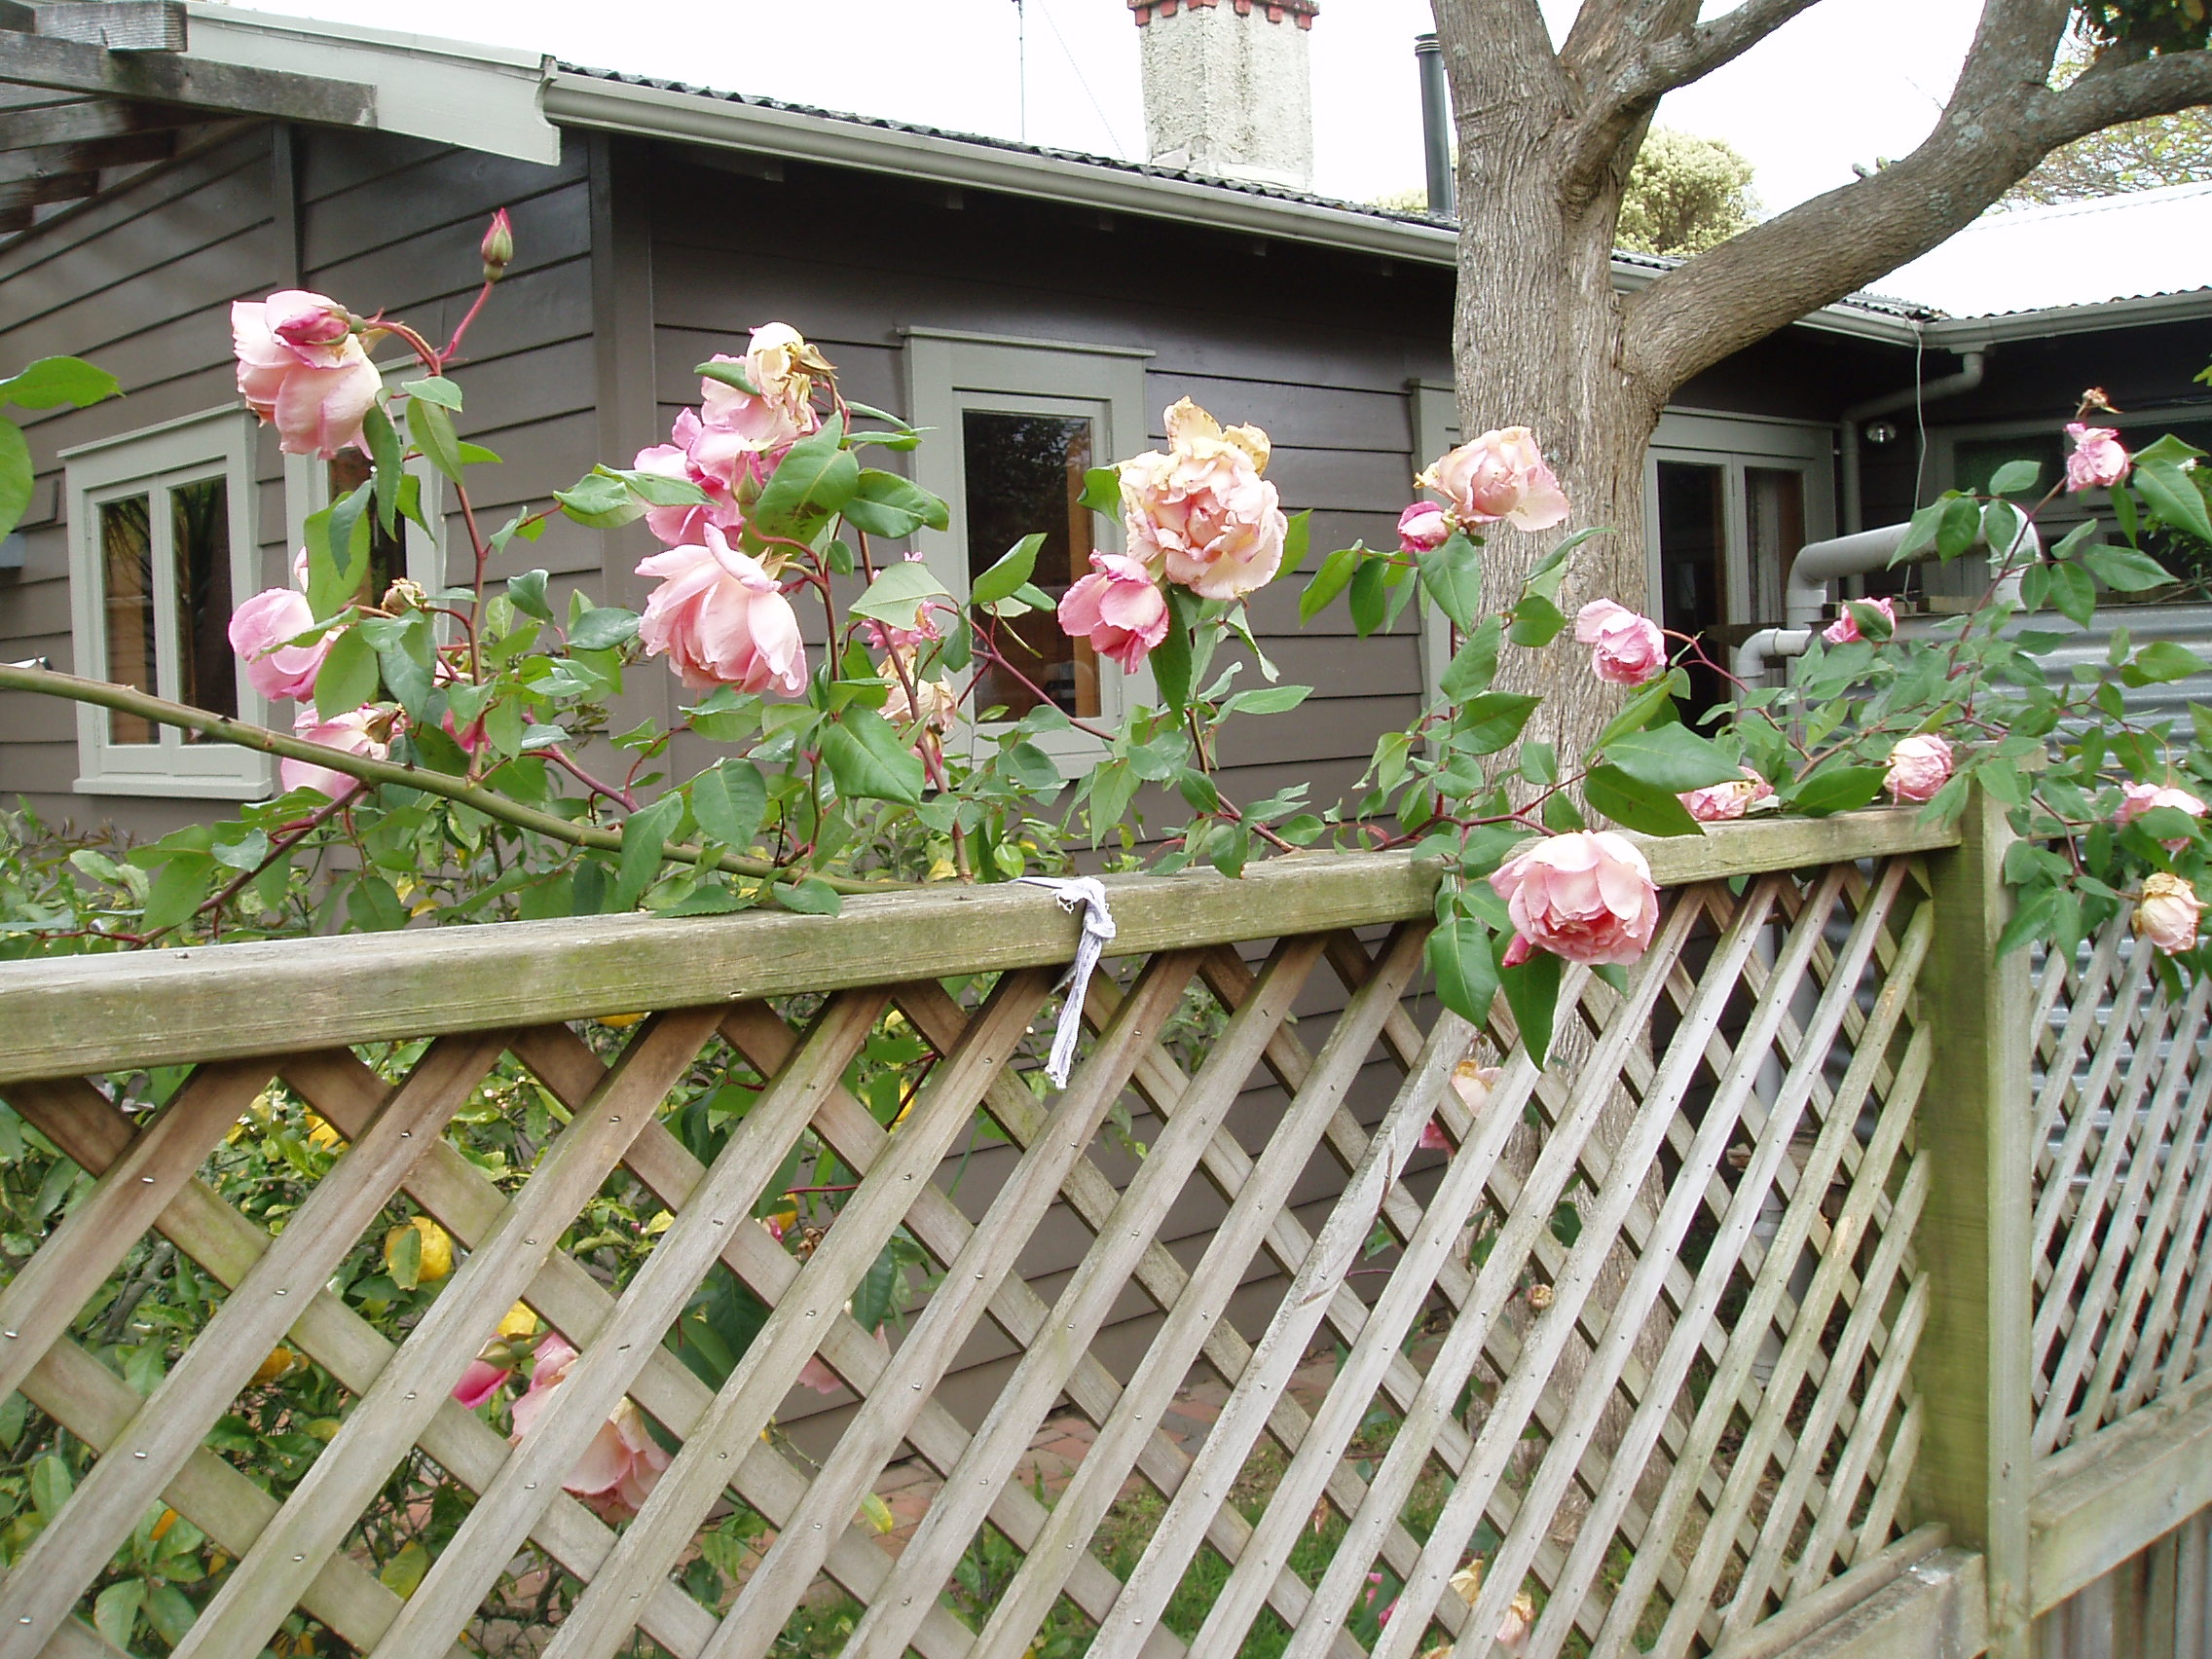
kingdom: Plantae
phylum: Tracheophyta
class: Magnoliopsida
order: Rosales
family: Rosaceae
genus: Rosa
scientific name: Rosa
